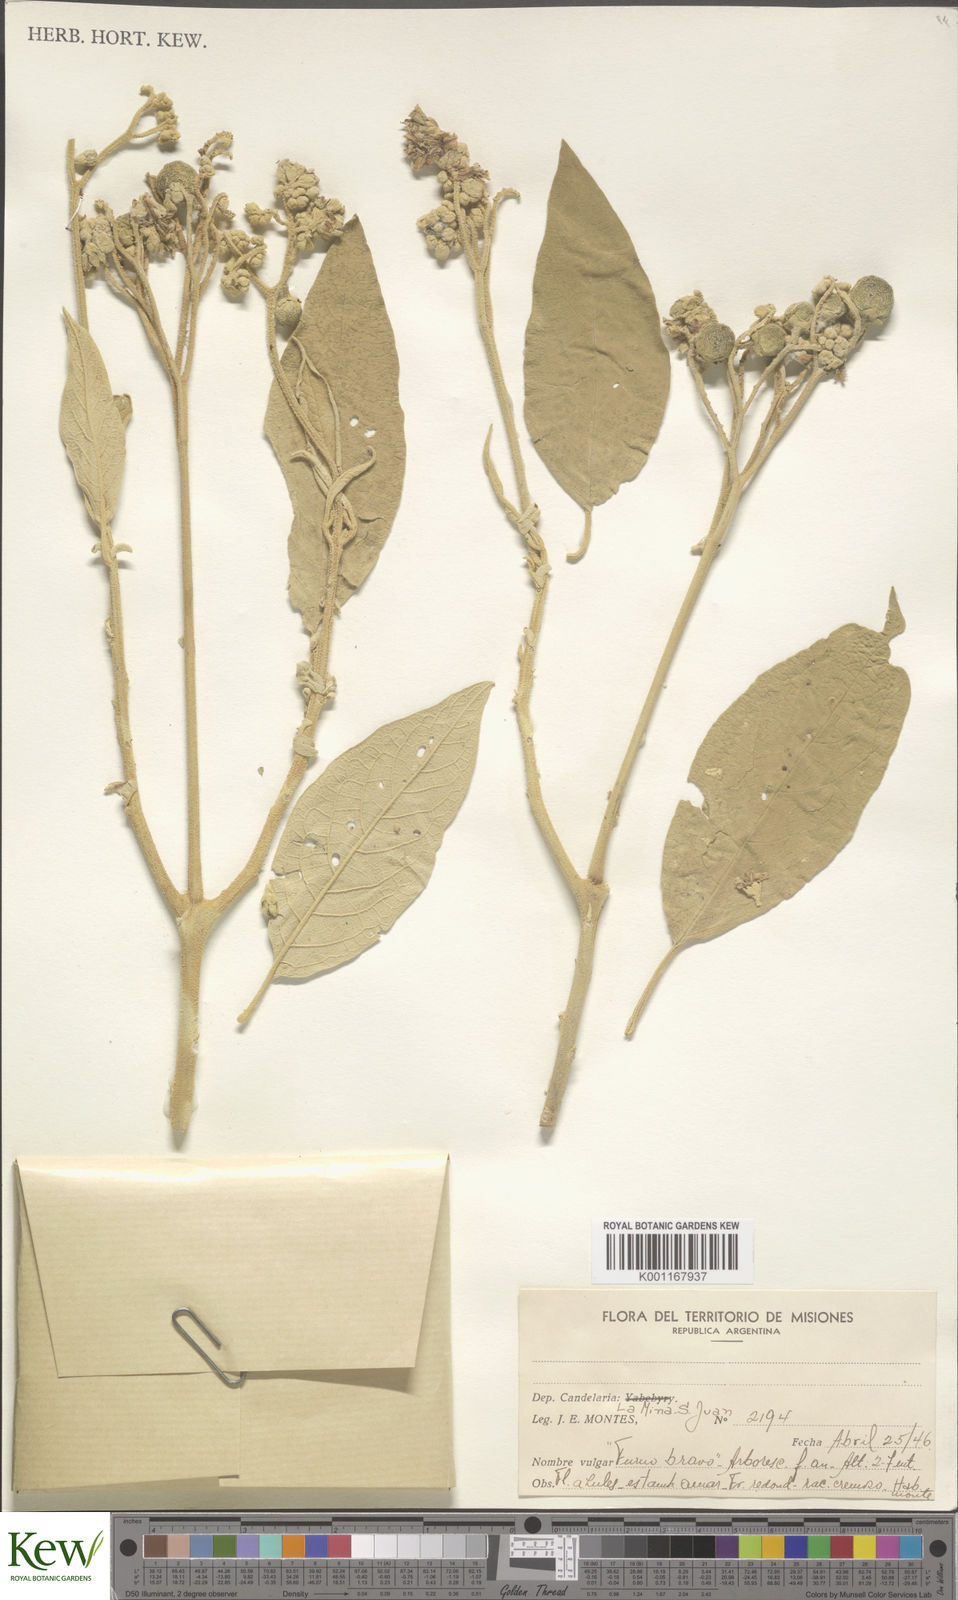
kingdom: Plantae
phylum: Tracheophyta
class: Magnoliopsida
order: Solanales
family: Solanaceae
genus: Solanum
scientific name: Solanum
